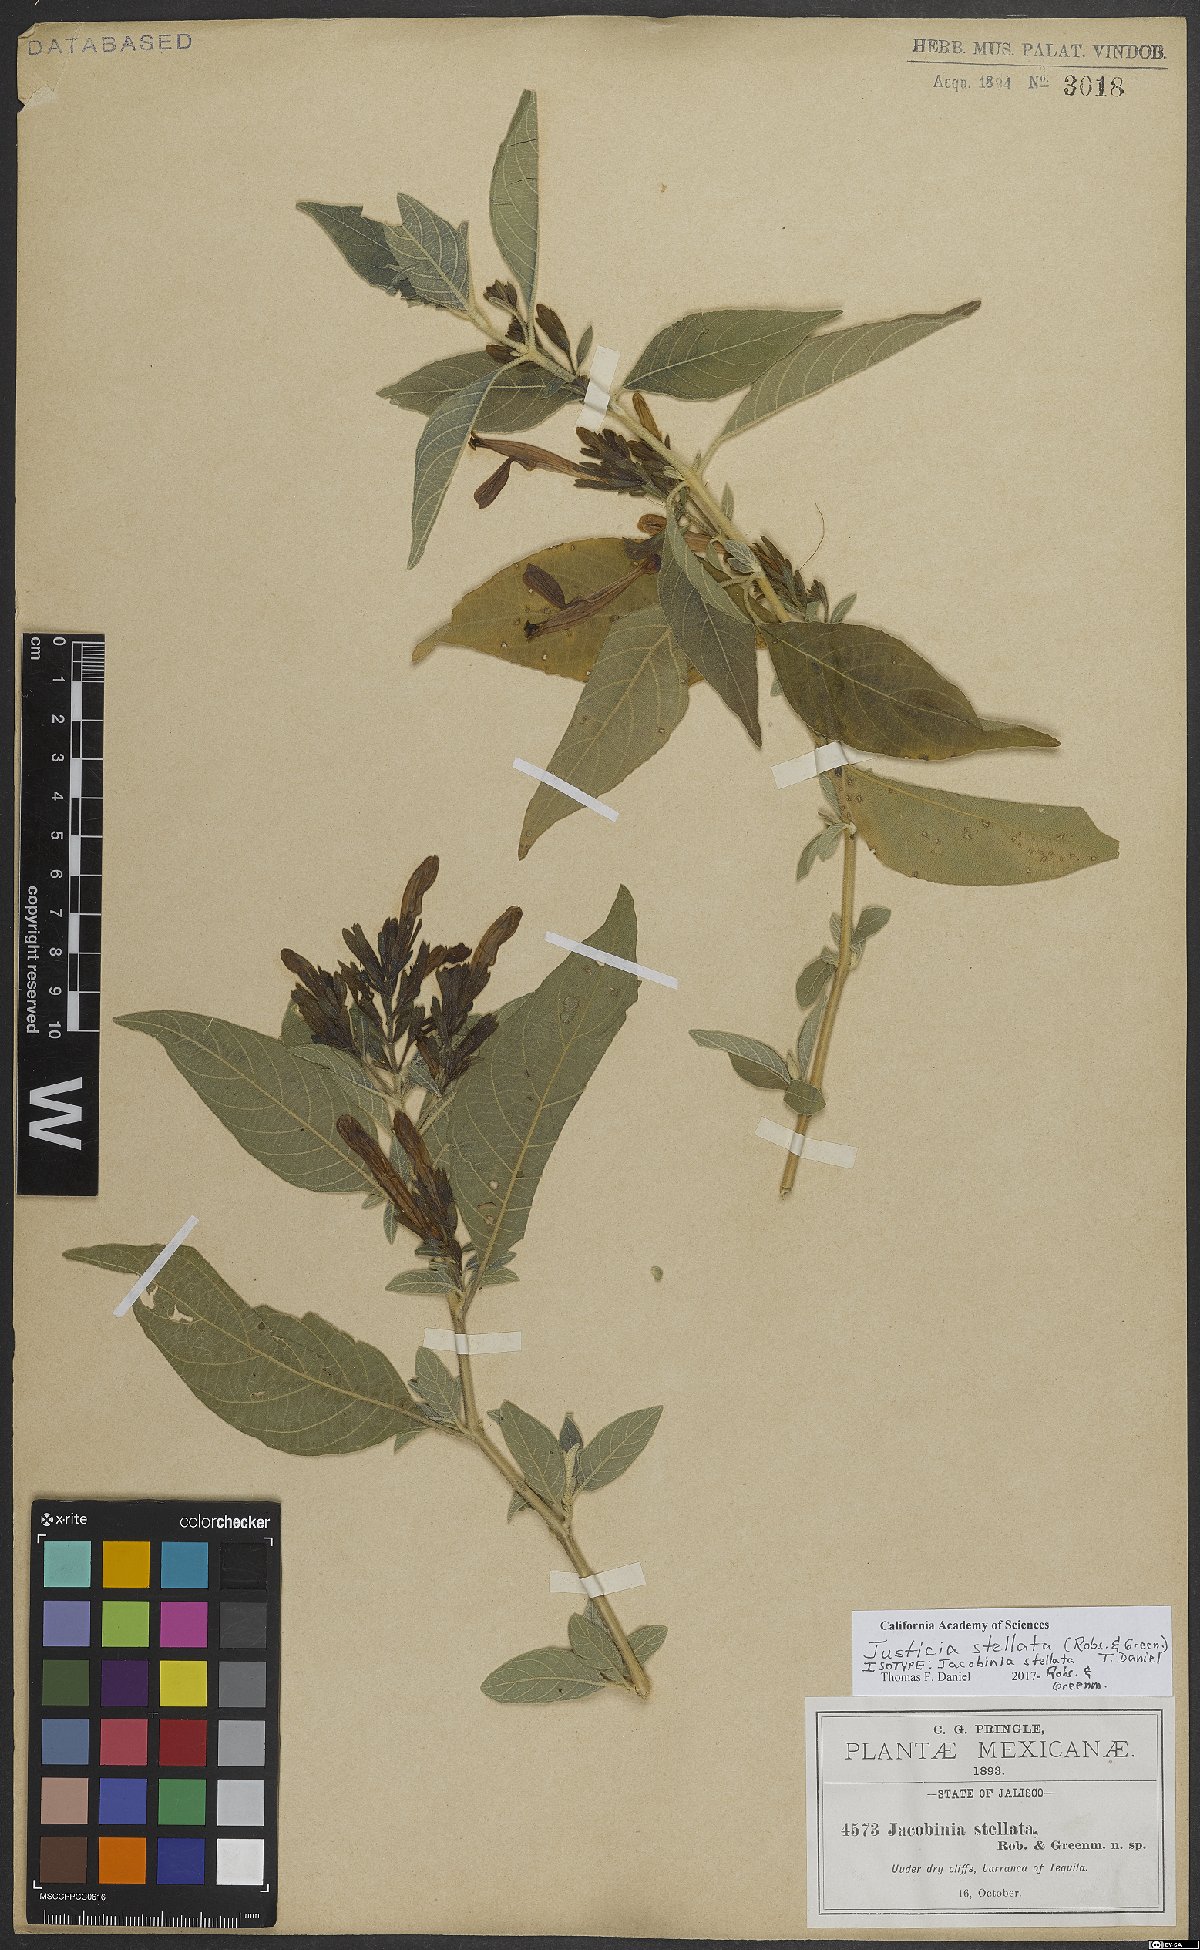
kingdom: Plantae
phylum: Tracheophyta
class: Magnoliopsida
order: Lamiales
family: Acanthaceae
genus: Justicia
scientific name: Justicia stellata
